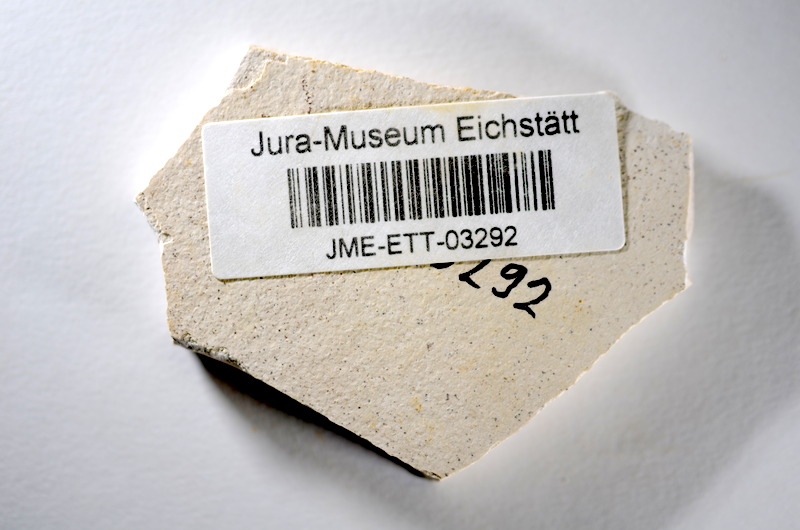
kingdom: Animalia
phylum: Chordata
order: Salmoniformes
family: Orthogonikleithridae
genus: Orthogonikleithrus
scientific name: Orthogonikleithrus hoelli
